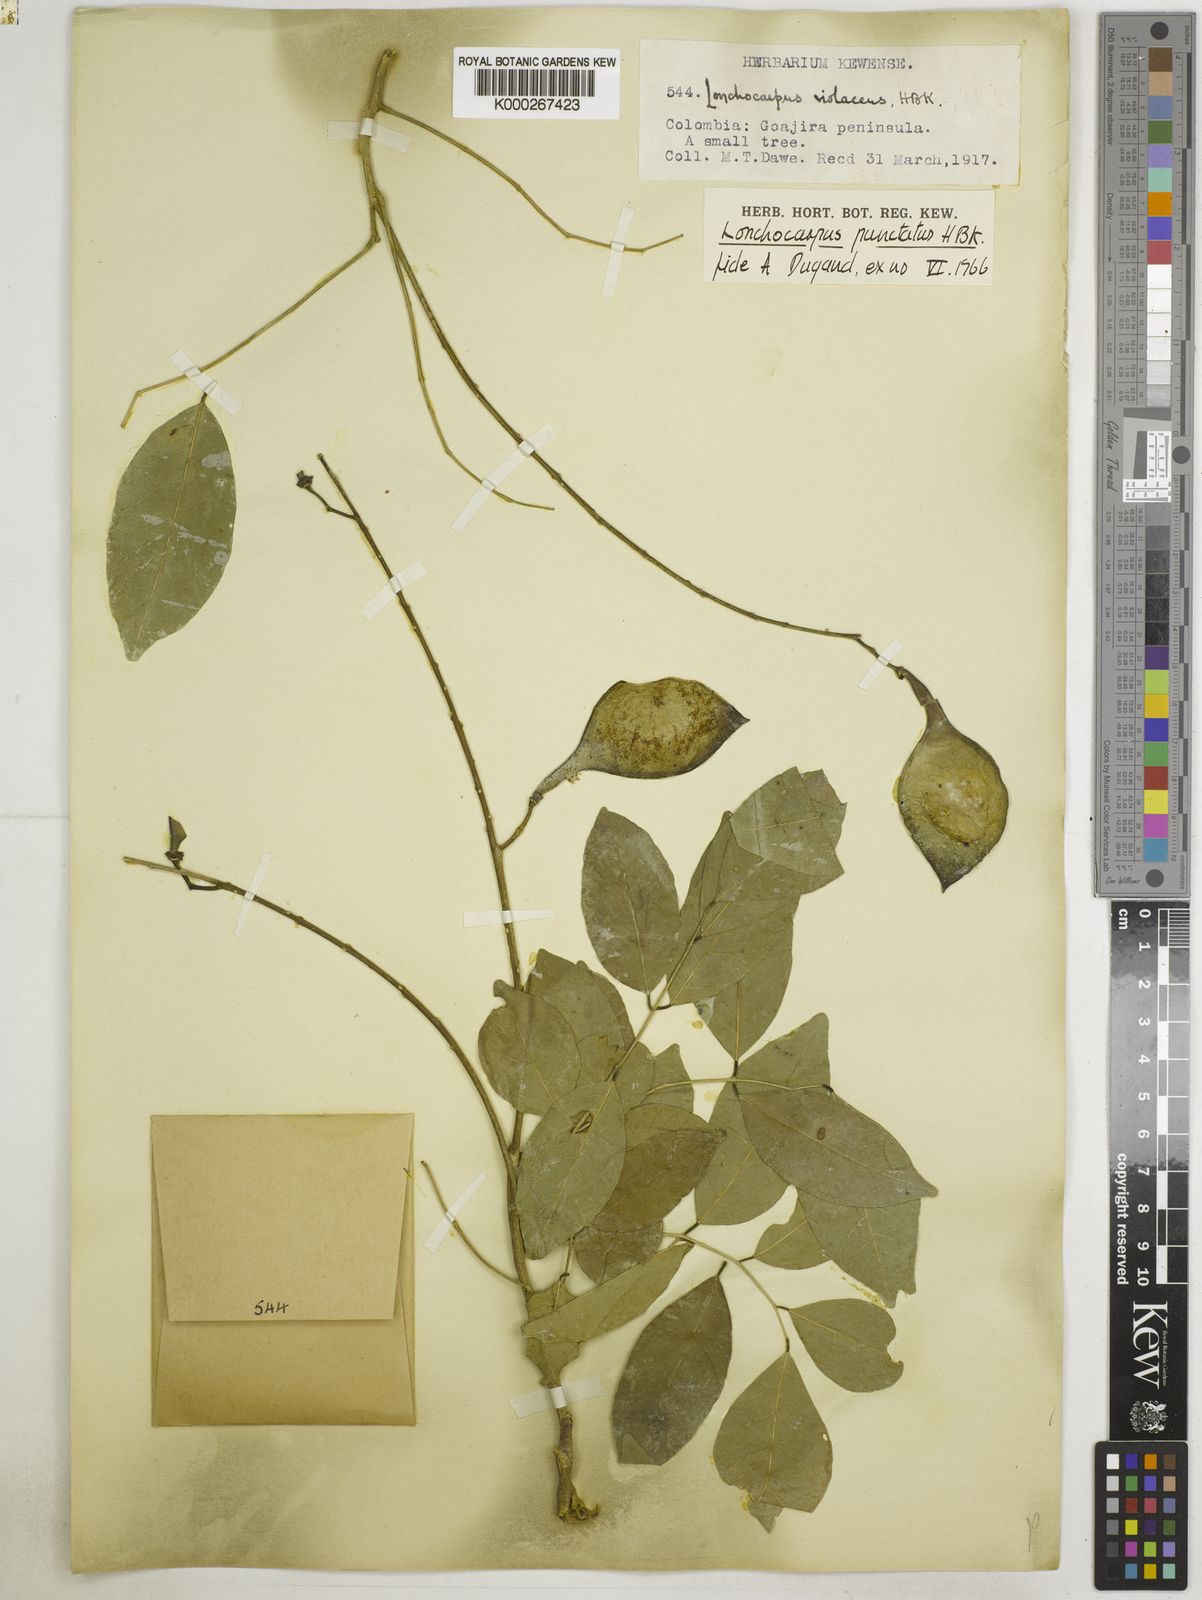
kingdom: Plantae
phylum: Tracheophyta
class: Magnoliopsida
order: Fabales
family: Fabaceae
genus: Lonchocarpus
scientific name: Lonchocarpus punctatus
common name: Dotted lancepod
